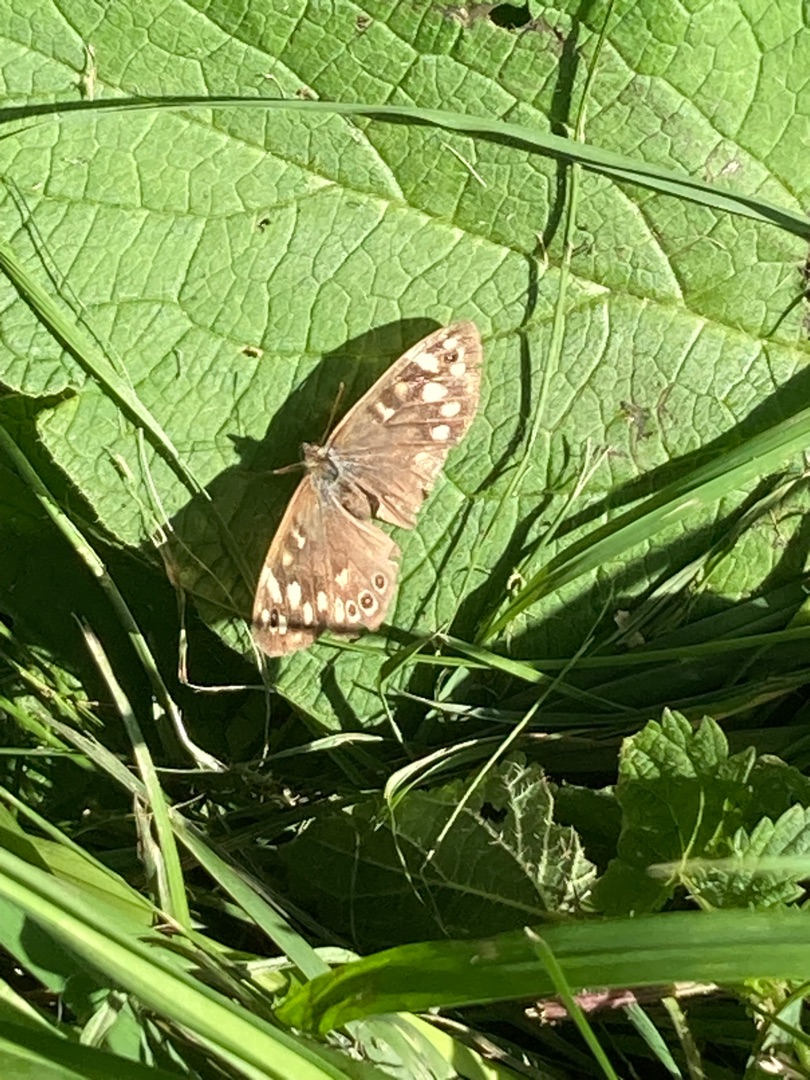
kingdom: Animalia
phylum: Arthropoda
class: Insecta
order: Lepidoptera
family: Nymphalidae
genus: Pararge
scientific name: Pararge aegeria
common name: Skovrandøje
